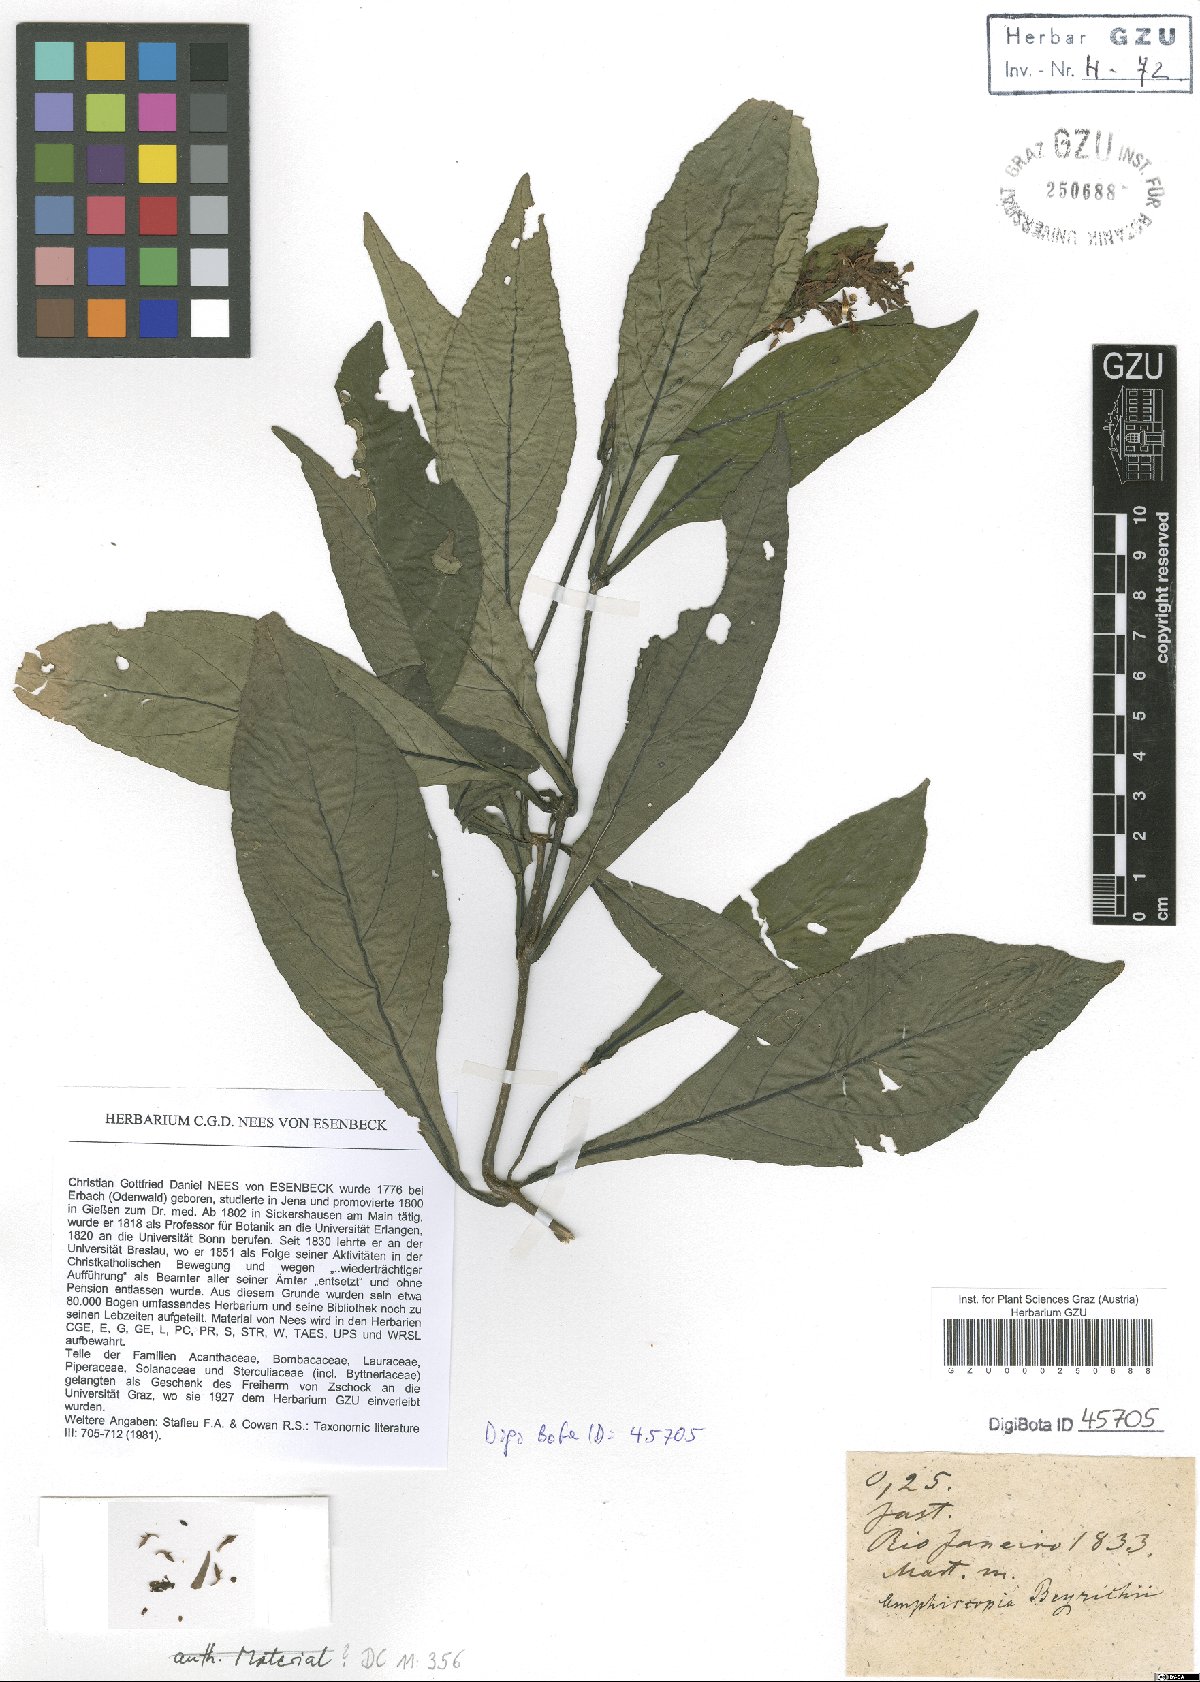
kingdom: Plantae
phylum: Tracheophyta
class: Magnoliopsida
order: Lamiales
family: Acanthaceae
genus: Dianthera
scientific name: Dianthera brasiliensis
